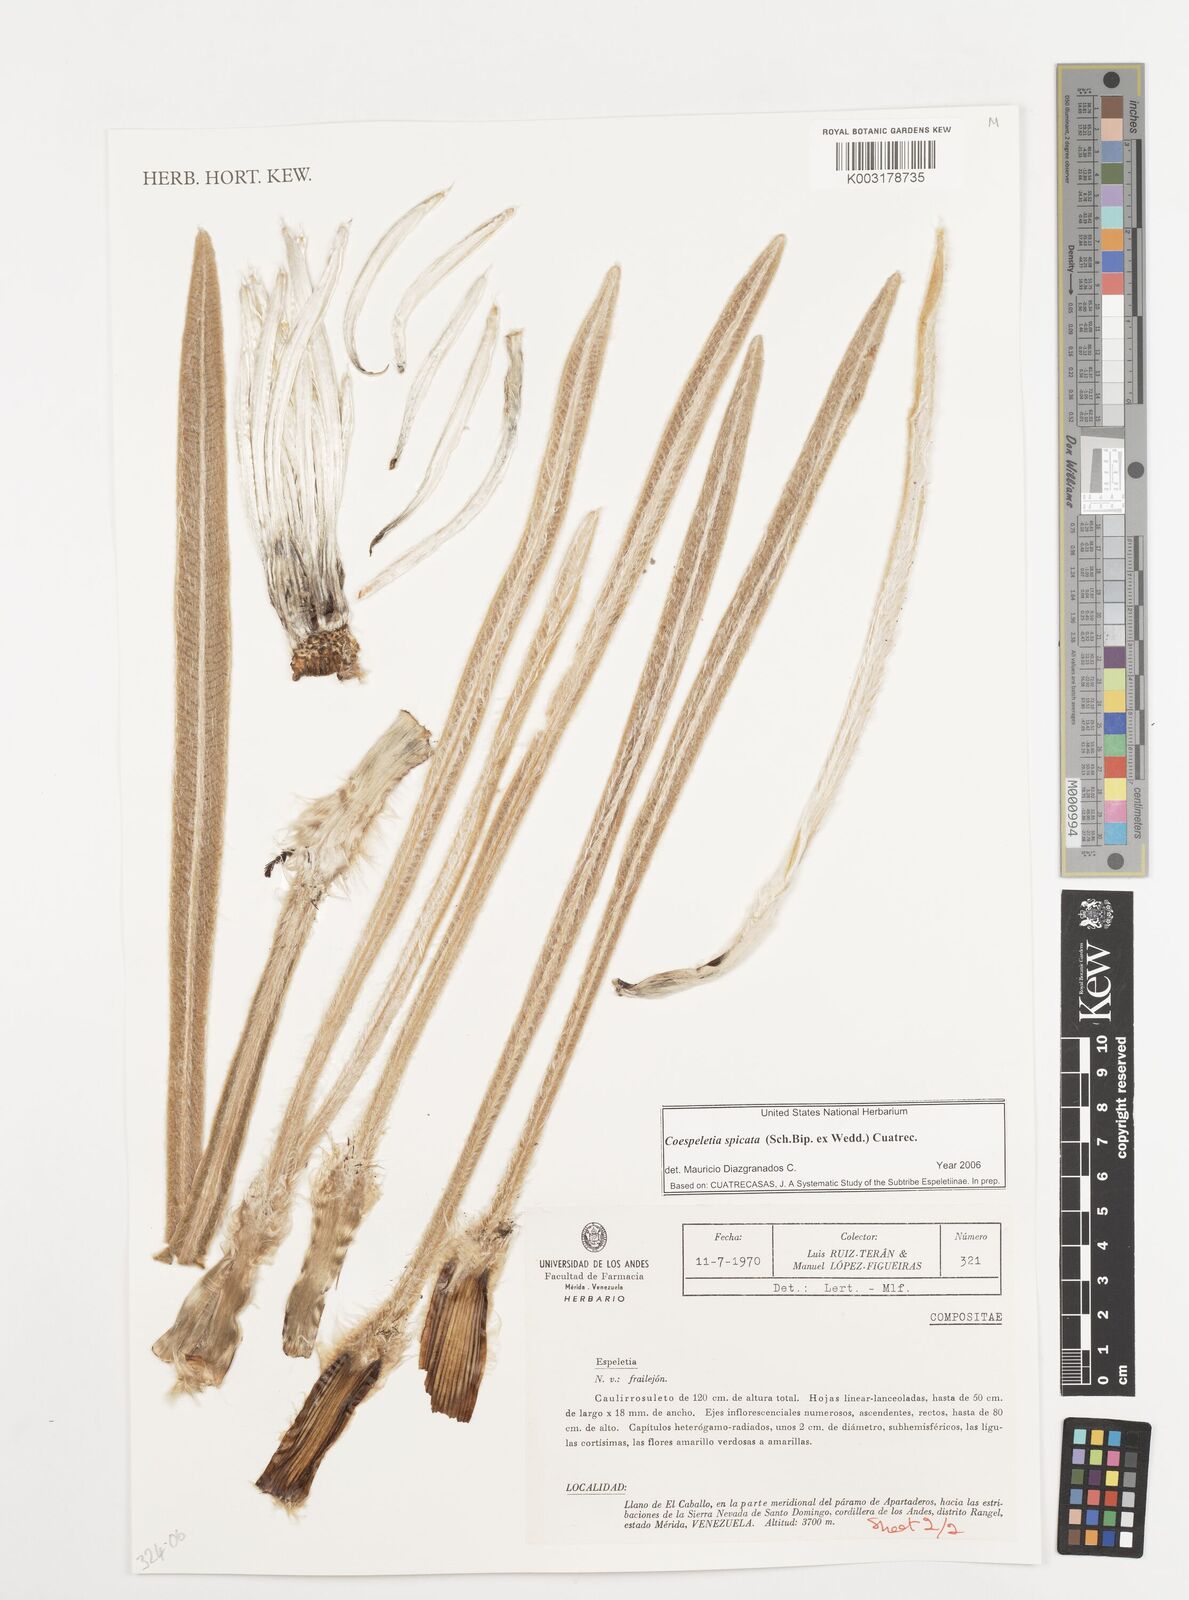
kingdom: Plantae
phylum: Tracheophyta
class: Magnoliopsida
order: Asterales
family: Asteraceae
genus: Espeletia
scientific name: Espeletia spicata
